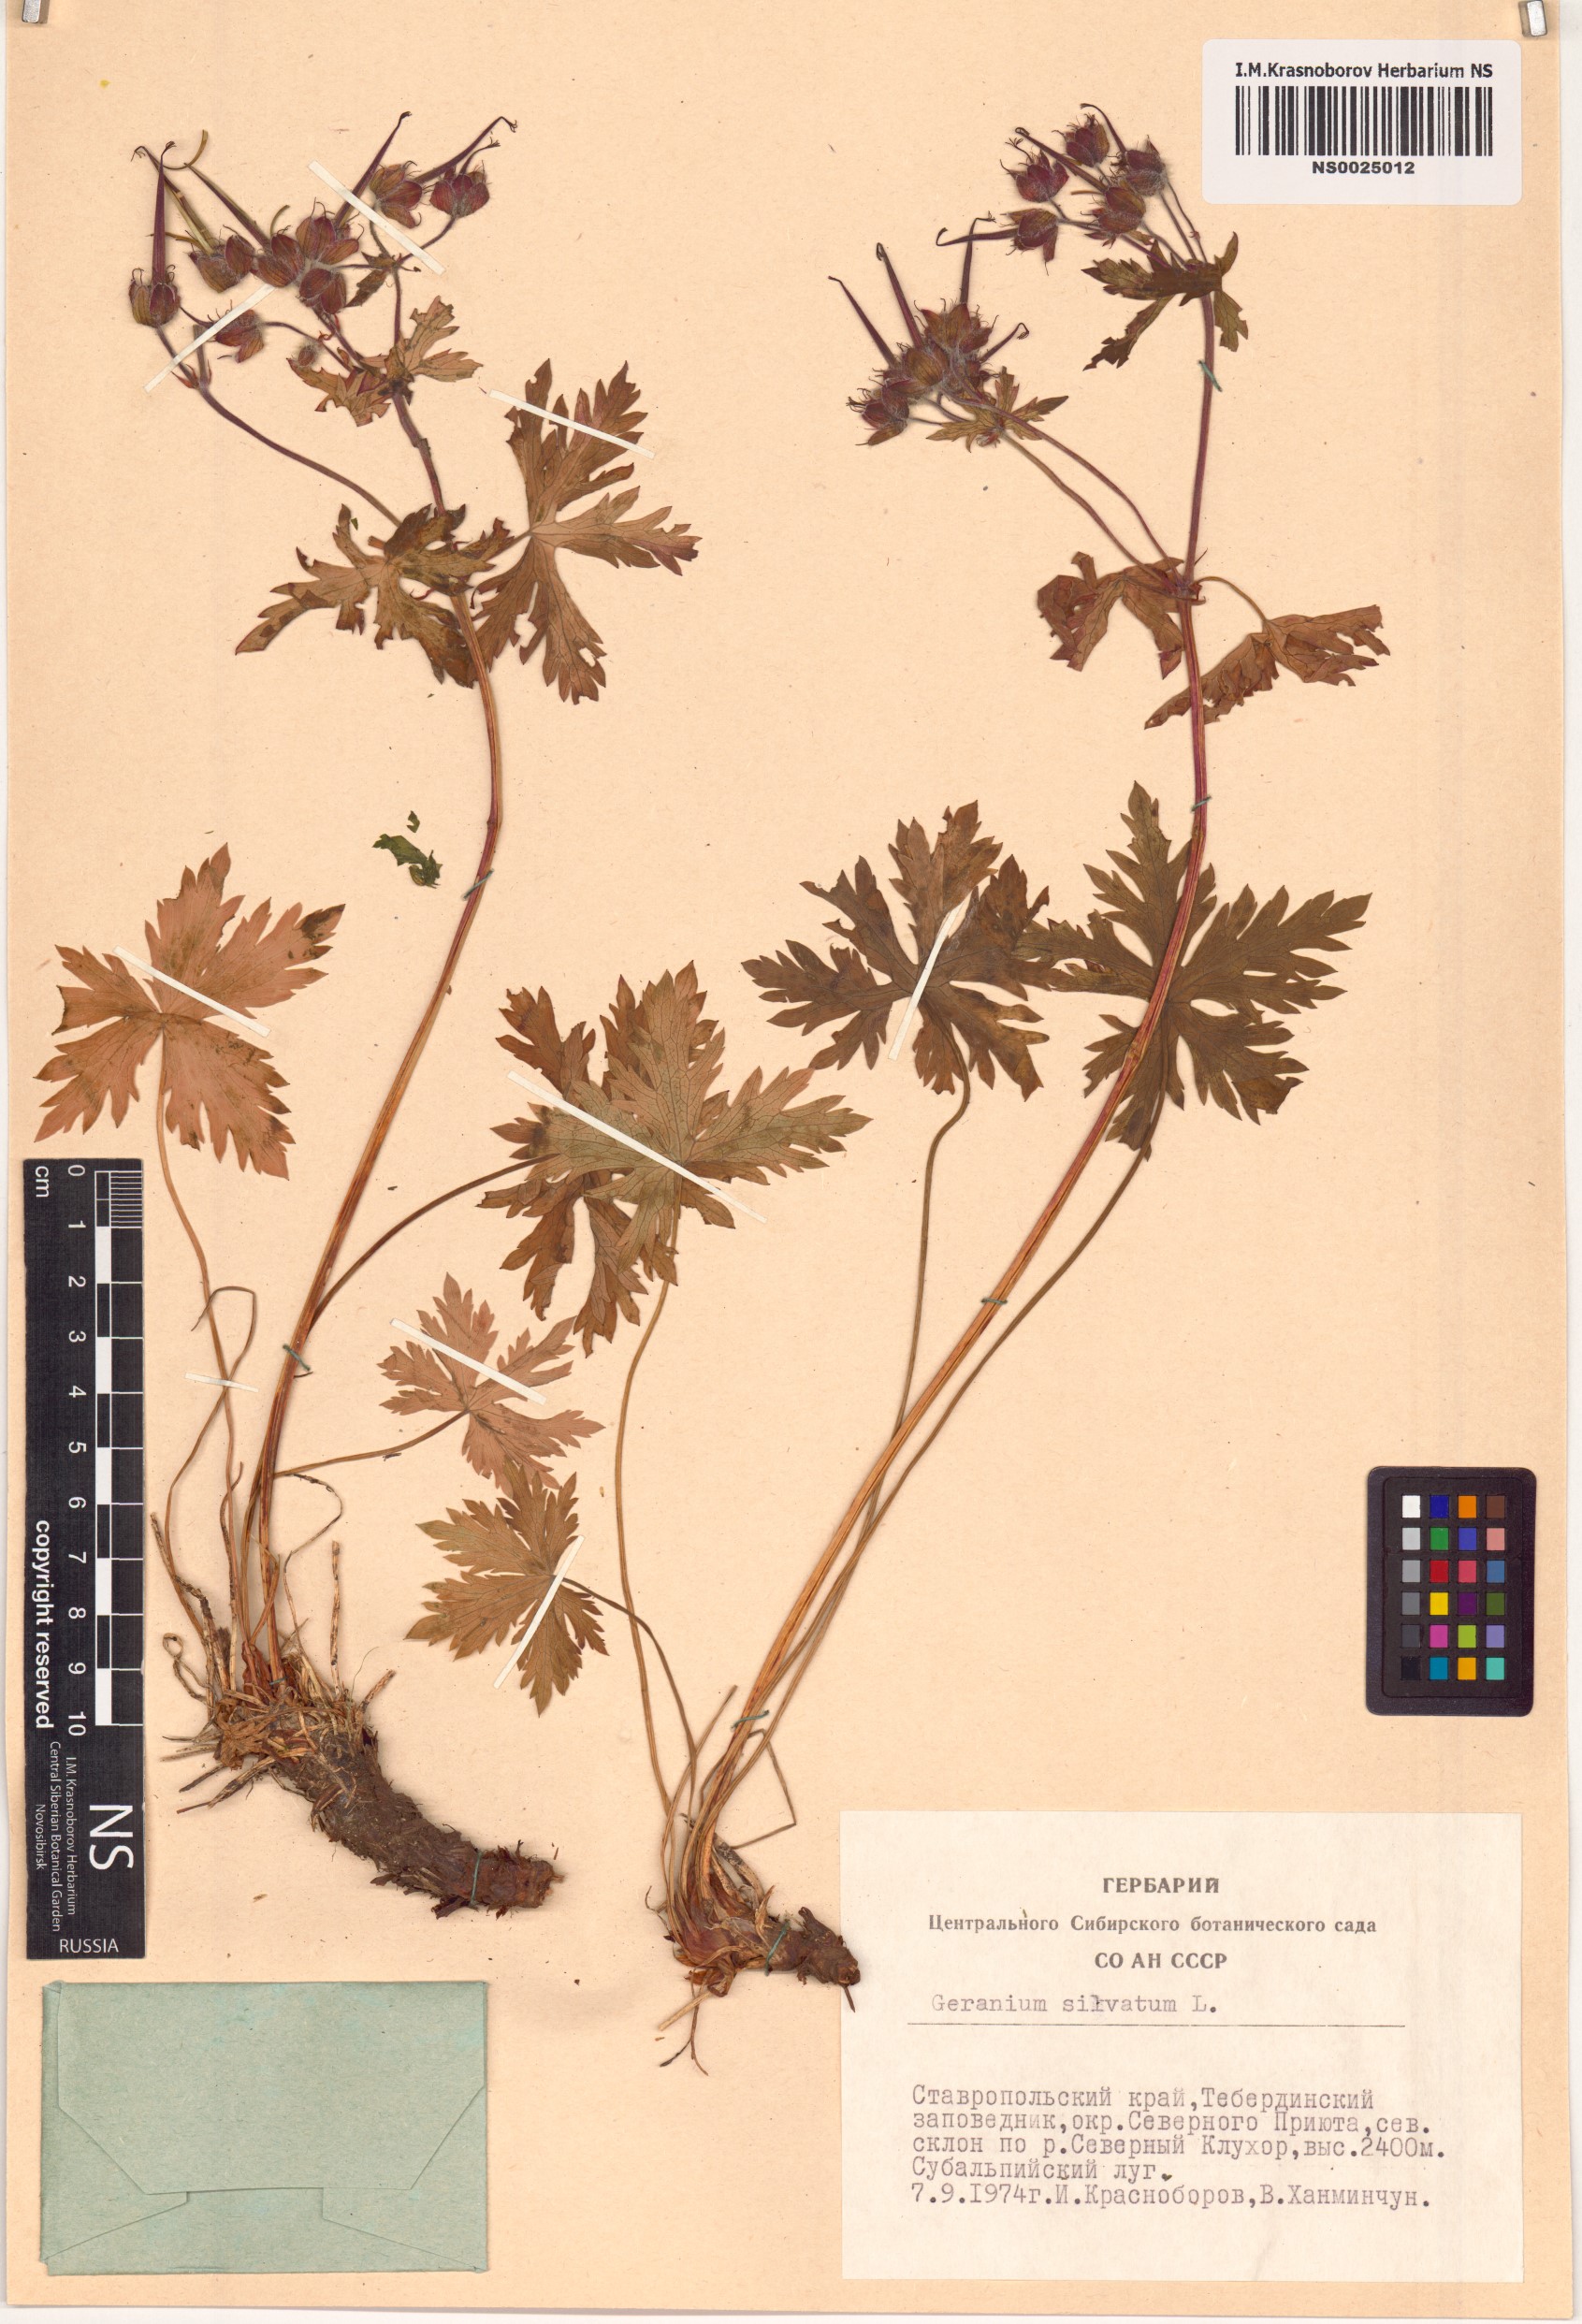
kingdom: Plantae
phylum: Tracheophyta
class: Magnoliopsida
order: Geraniales
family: Geraniaceae
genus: Geranium
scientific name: Geranium sylvaticum
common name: Wood crane's-bill
